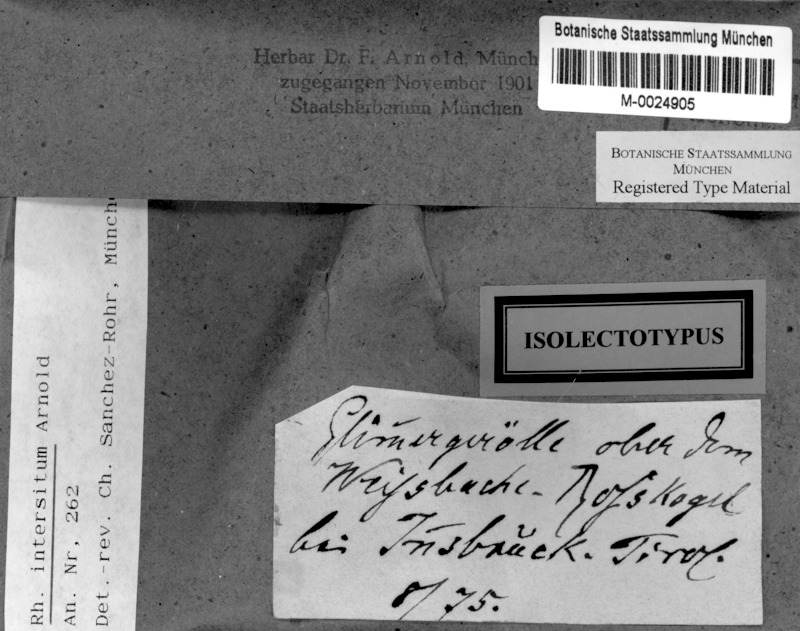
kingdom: Fungi
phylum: Ascomycota
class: Lecanoromycetes
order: Rhizocarpales
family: Rhizocarpaceae
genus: Rhizocarpon
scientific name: Rhizocarpon intersitum
